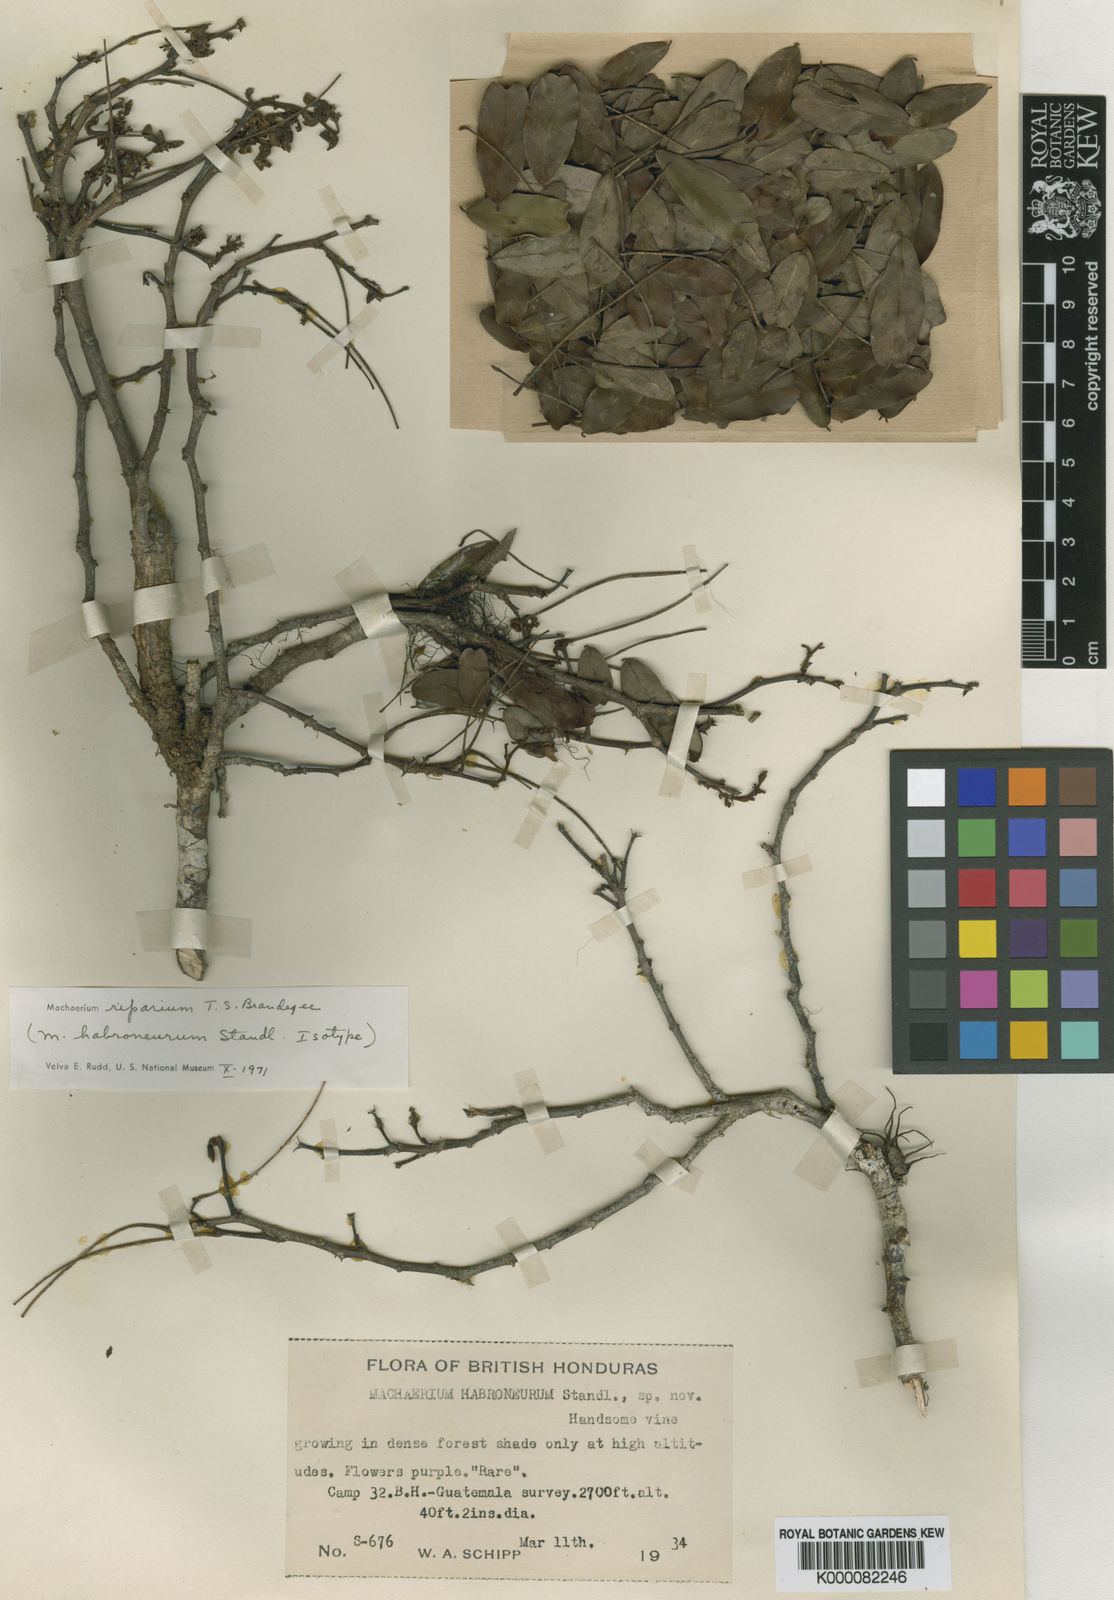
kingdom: Plantae
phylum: Tracheophyta
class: Magnoliopsida
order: Fabales
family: Fabaceae
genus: Machaerium
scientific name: Machaerium riparium
